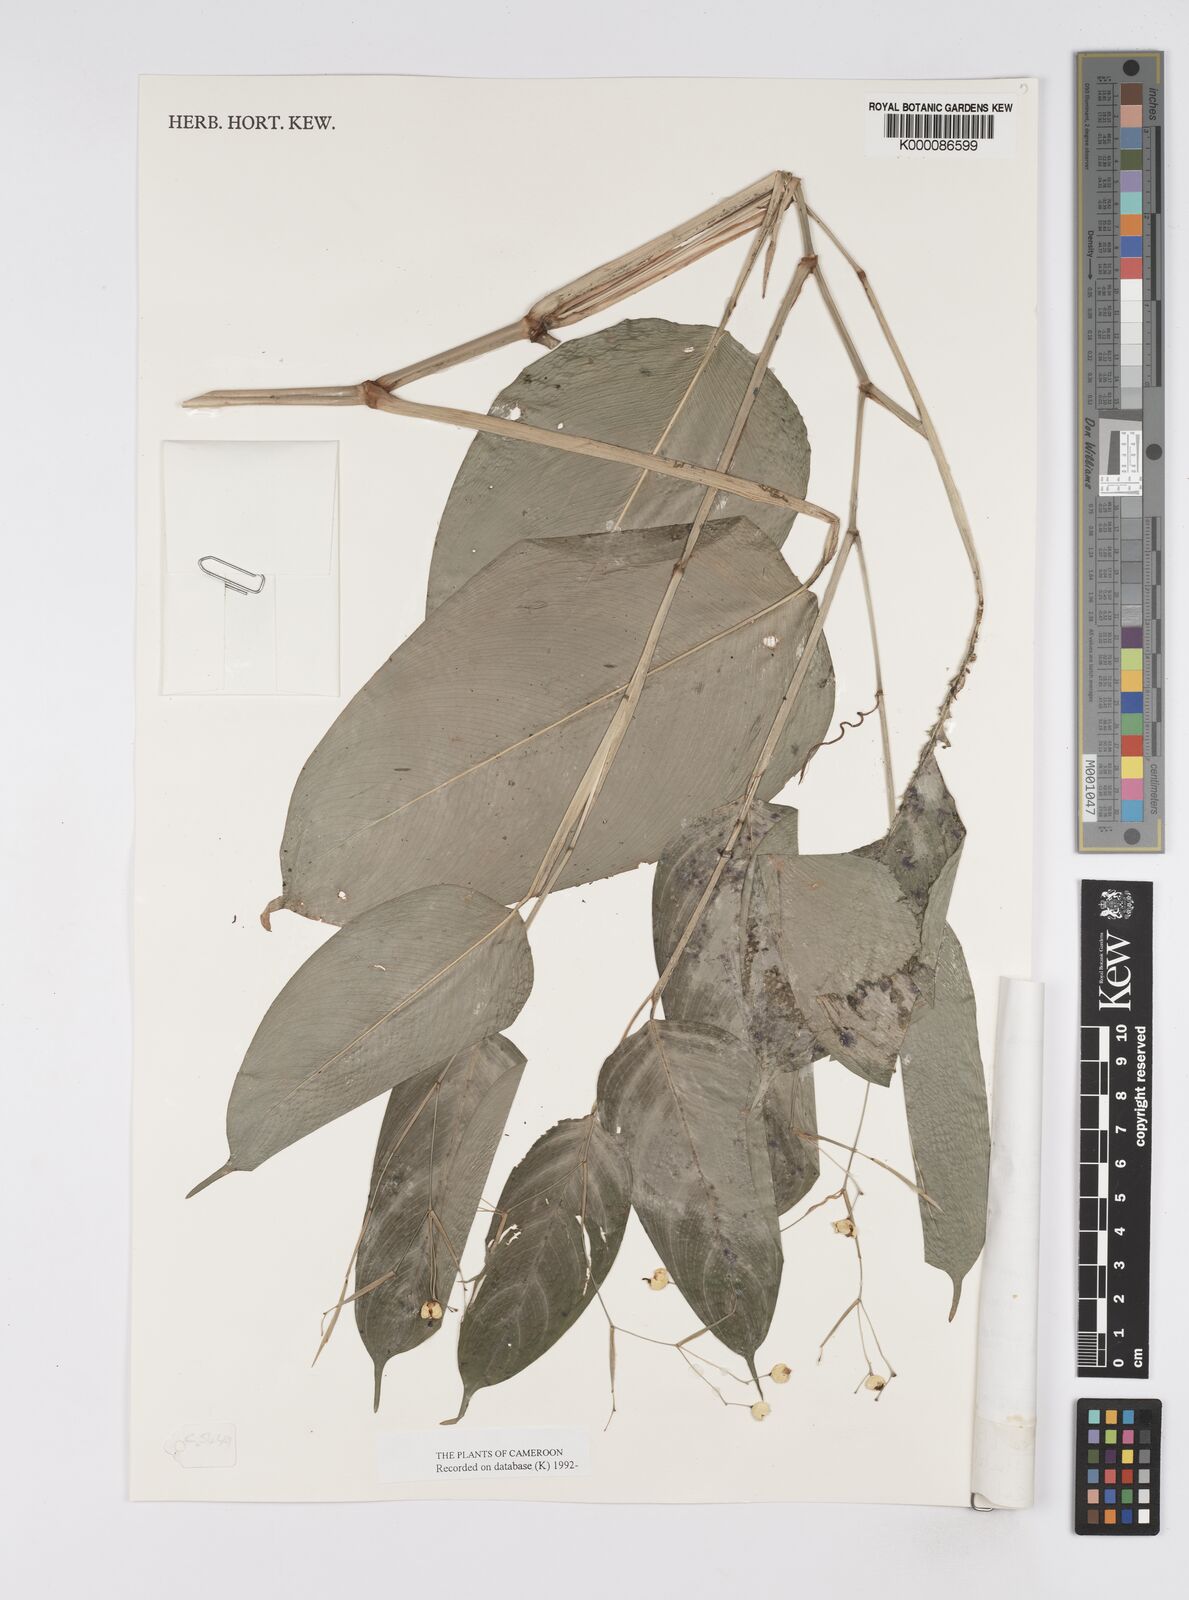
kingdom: Plantae
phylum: Tracheophyta
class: Liliopsida
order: Zingiberales
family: Marantaceae
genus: Marantochloa
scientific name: Marantochloa filipes
